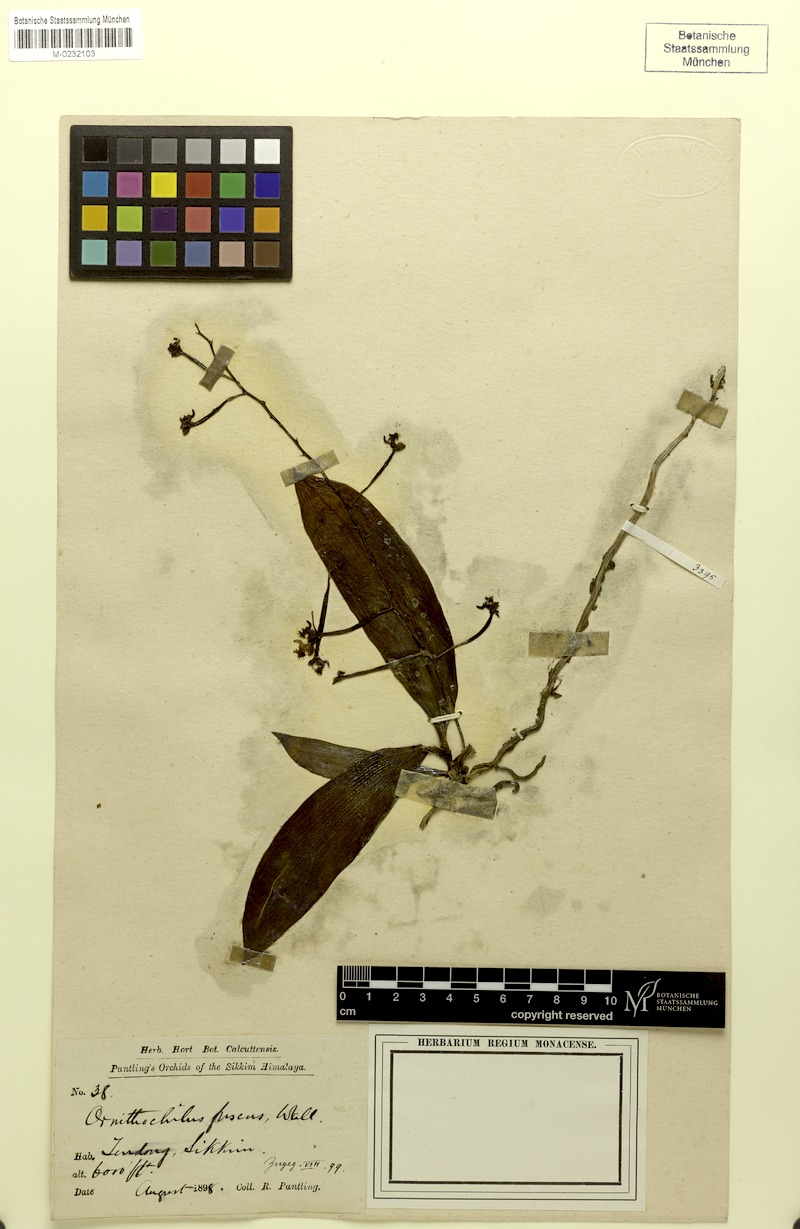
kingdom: Plantae
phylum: Tracheophyta
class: Liliopsida
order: Asparagales
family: Orchidaceae
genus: Phalaenopsis
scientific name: Phalaenopsis difformis
